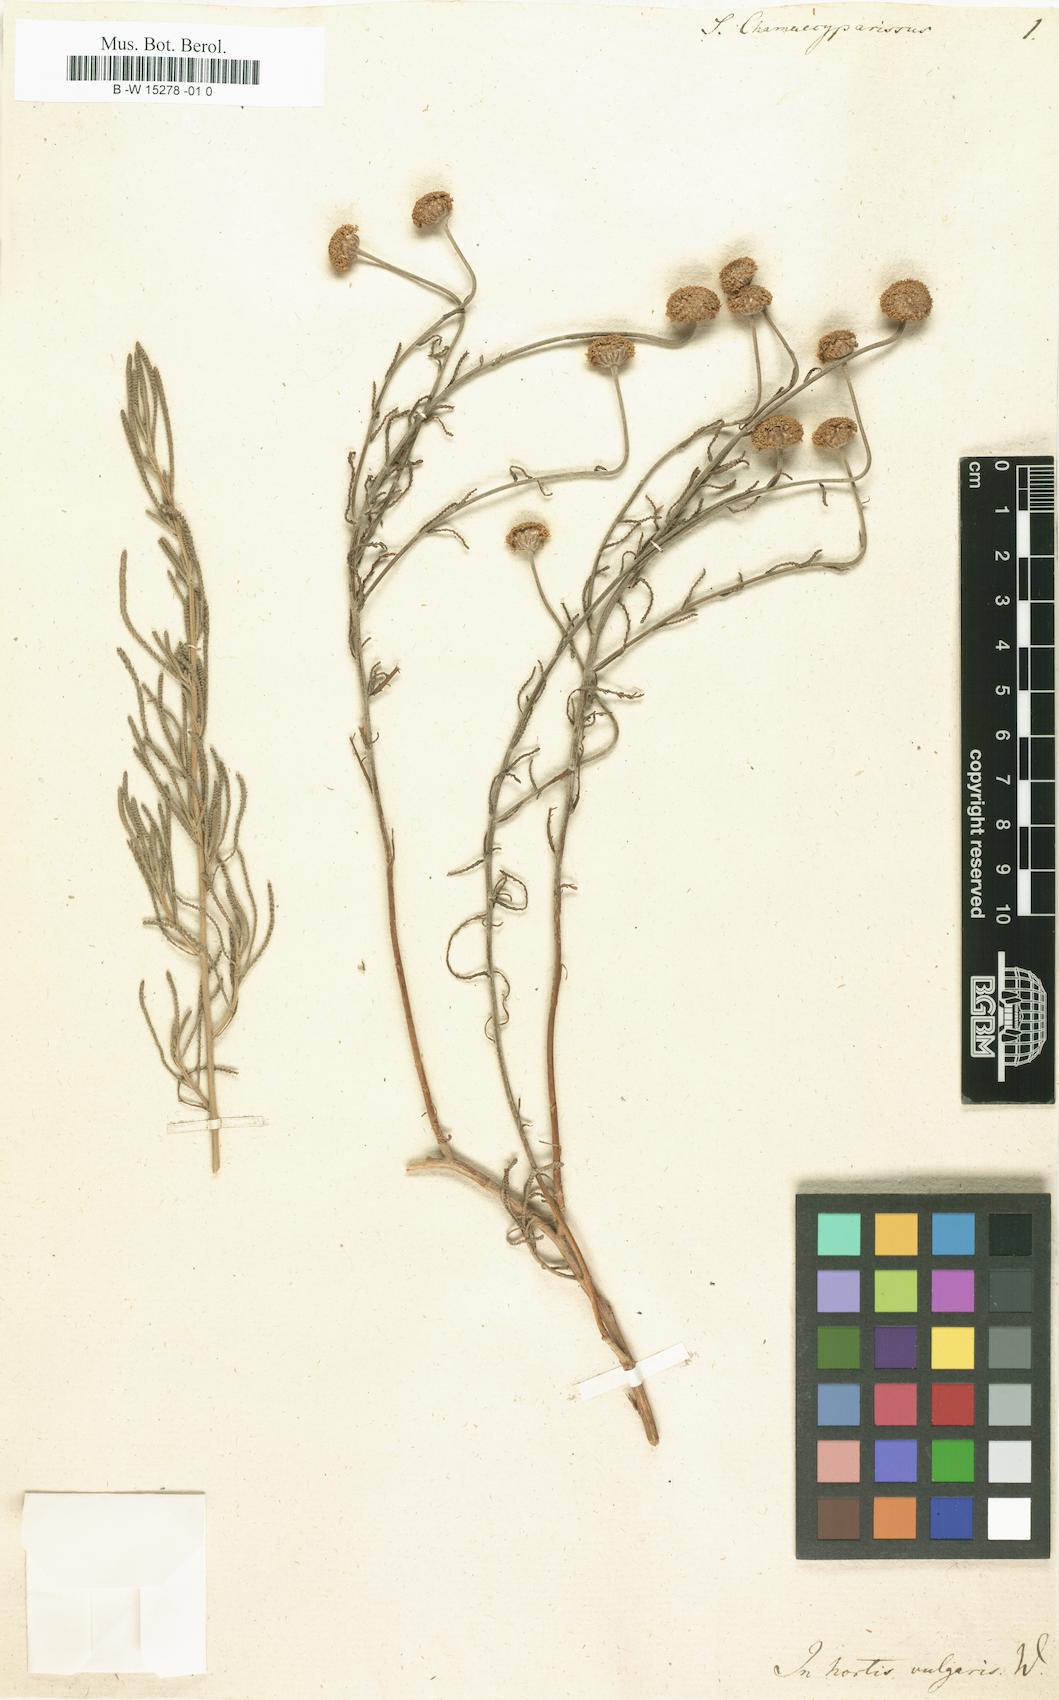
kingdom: Plantae
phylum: Tracheophyta
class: Magnoliopsida
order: Asterales
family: Asteraceae
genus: Santolina
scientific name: Santolina chamaecyparissus
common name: Lavender-cotton
